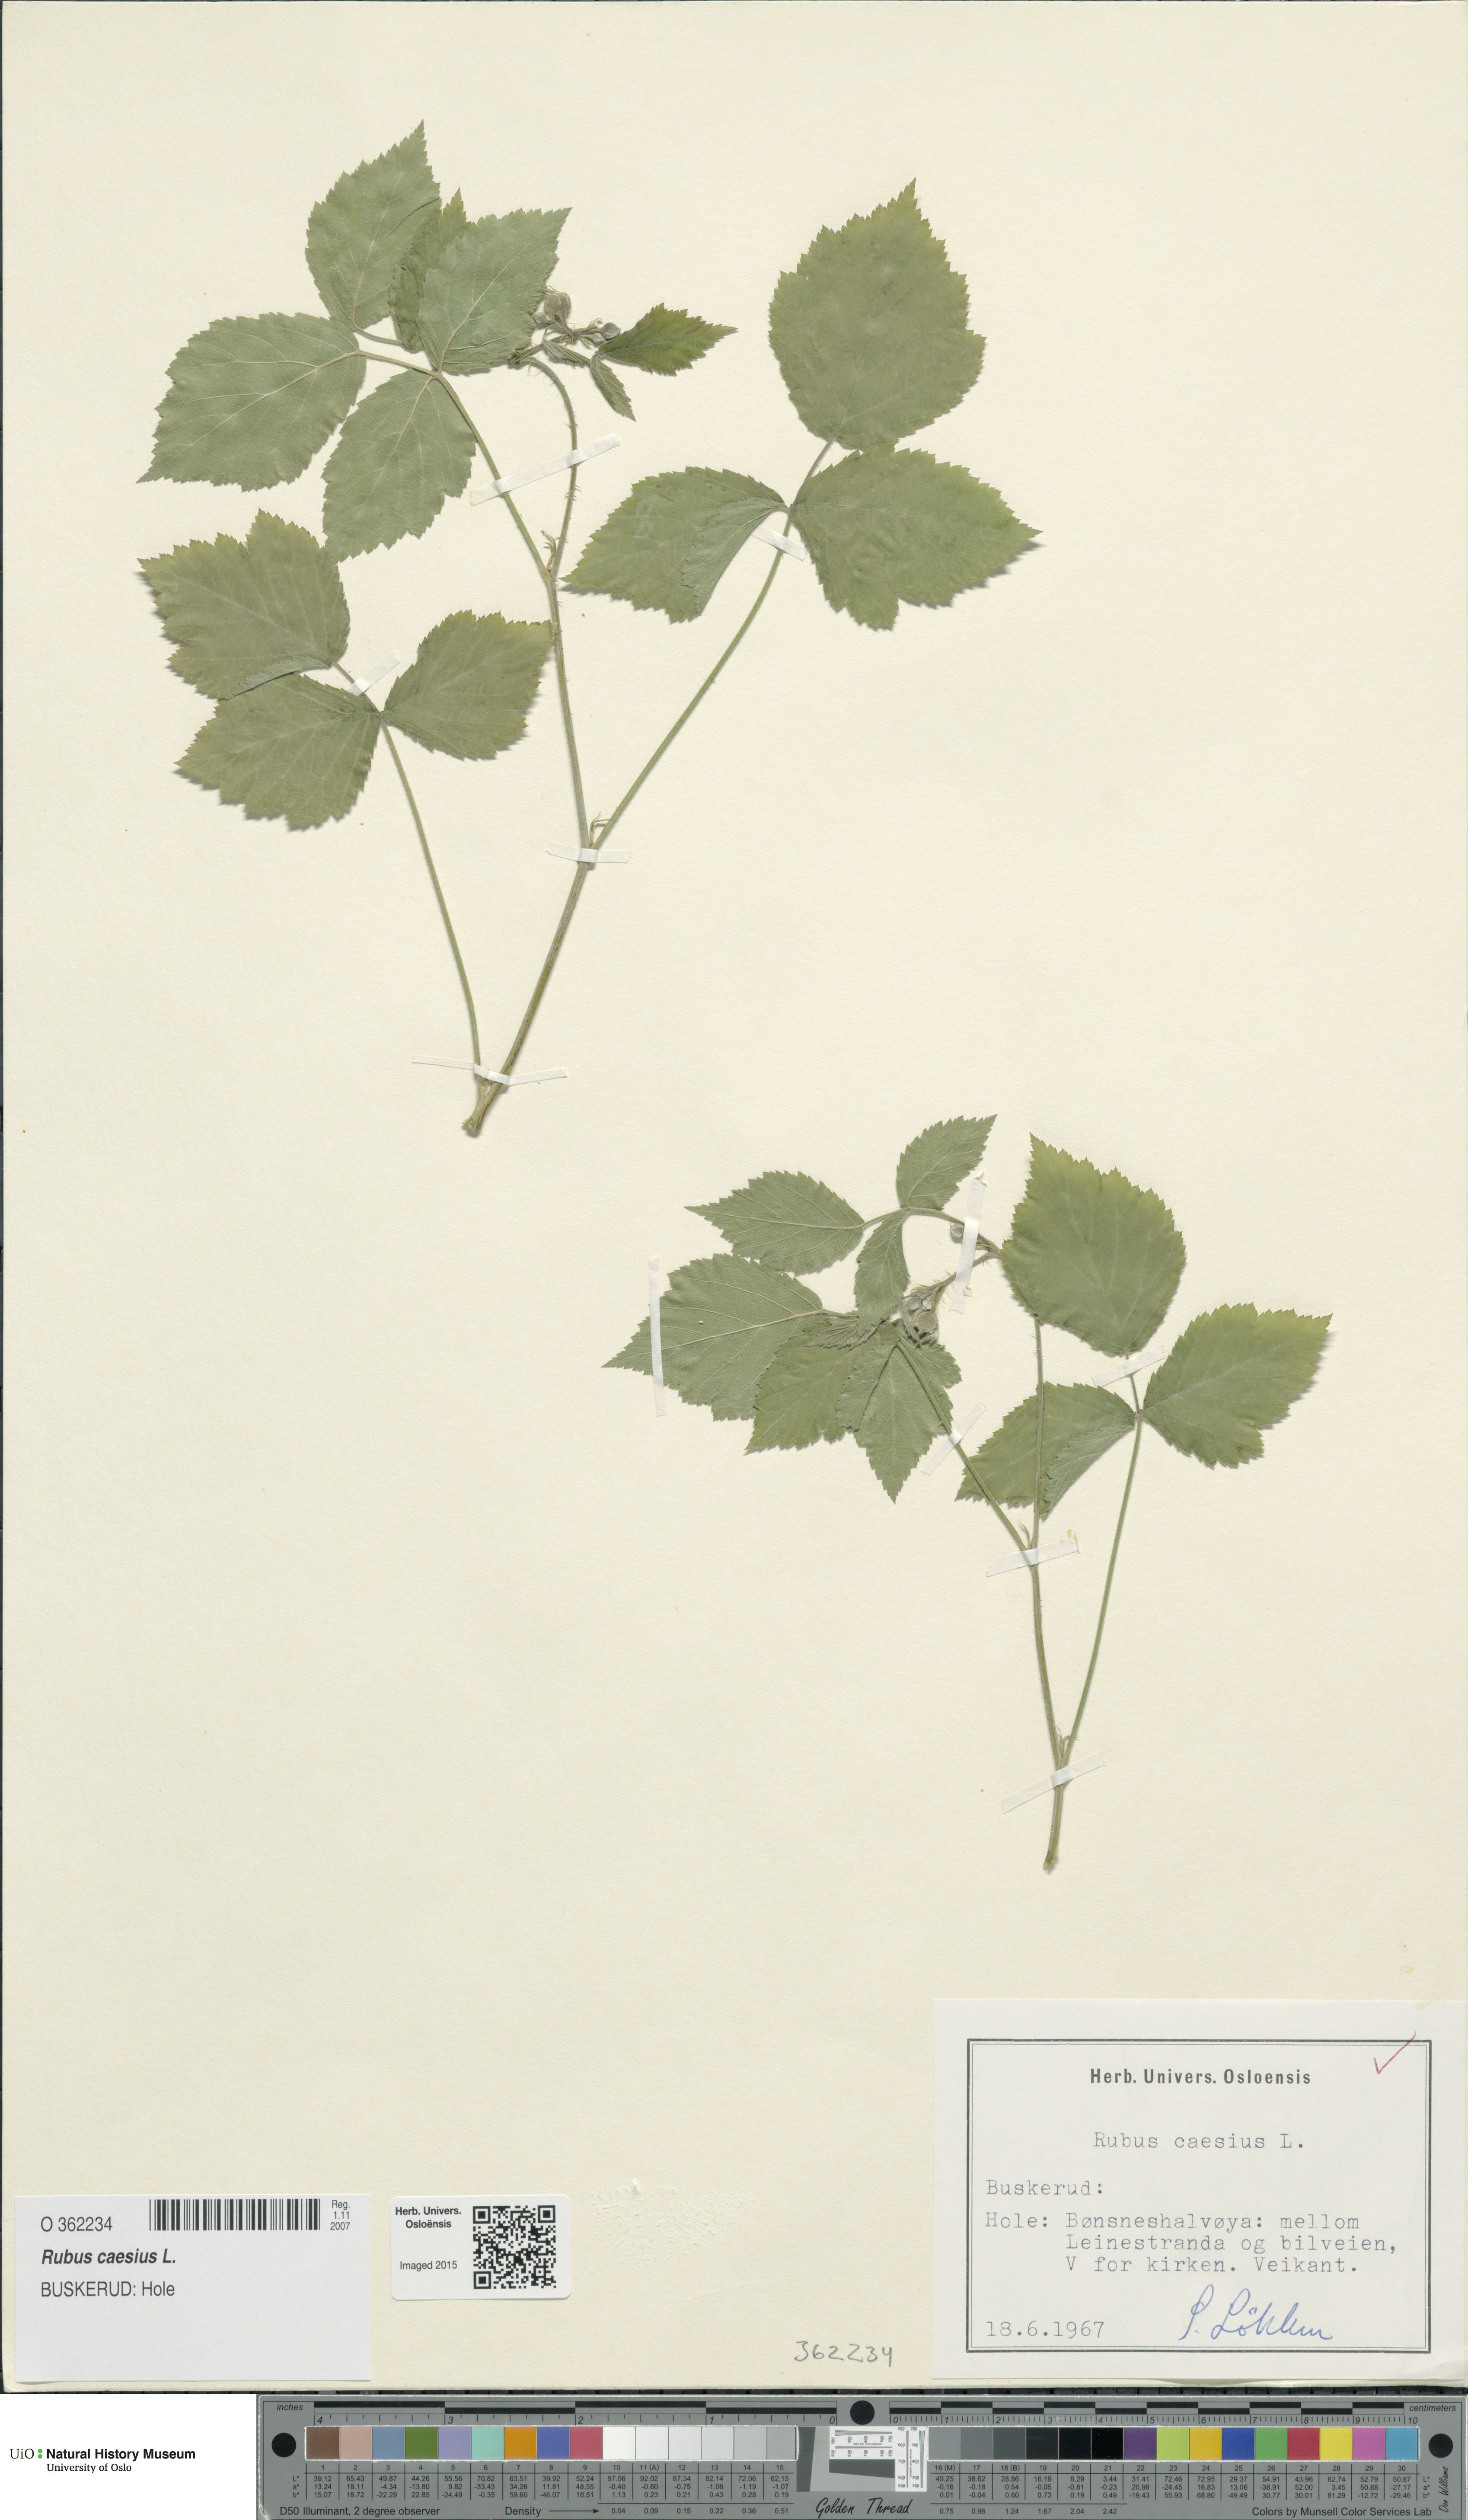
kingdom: Plantae
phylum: Tracheophyta
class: Magnoliopsida
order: Rosales
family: Rosaceae
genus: Rubus
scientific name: Rubus caesius
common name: Dewberry
